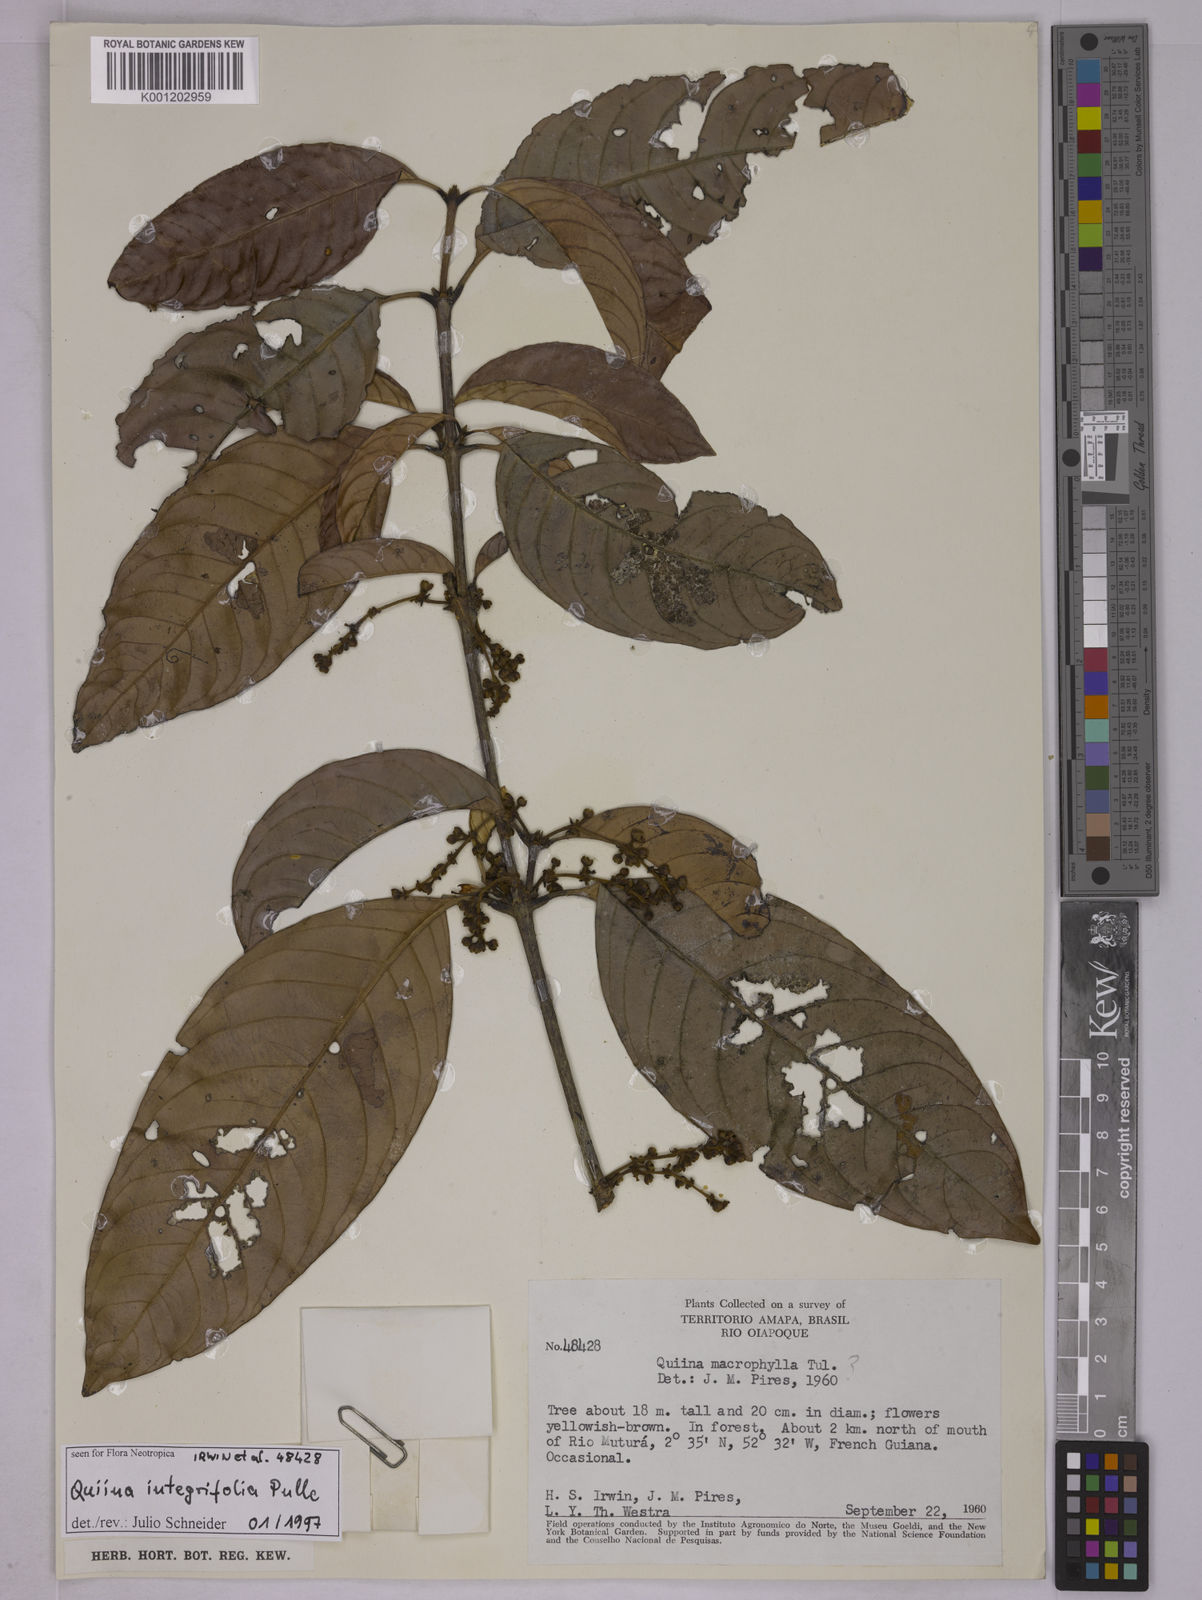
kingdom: Plantae
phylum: Tracheophyta
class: Magnoliopsida
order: Malpighiales
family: Quiinaceae
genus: Quiina
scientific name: Quiina integrifolia
